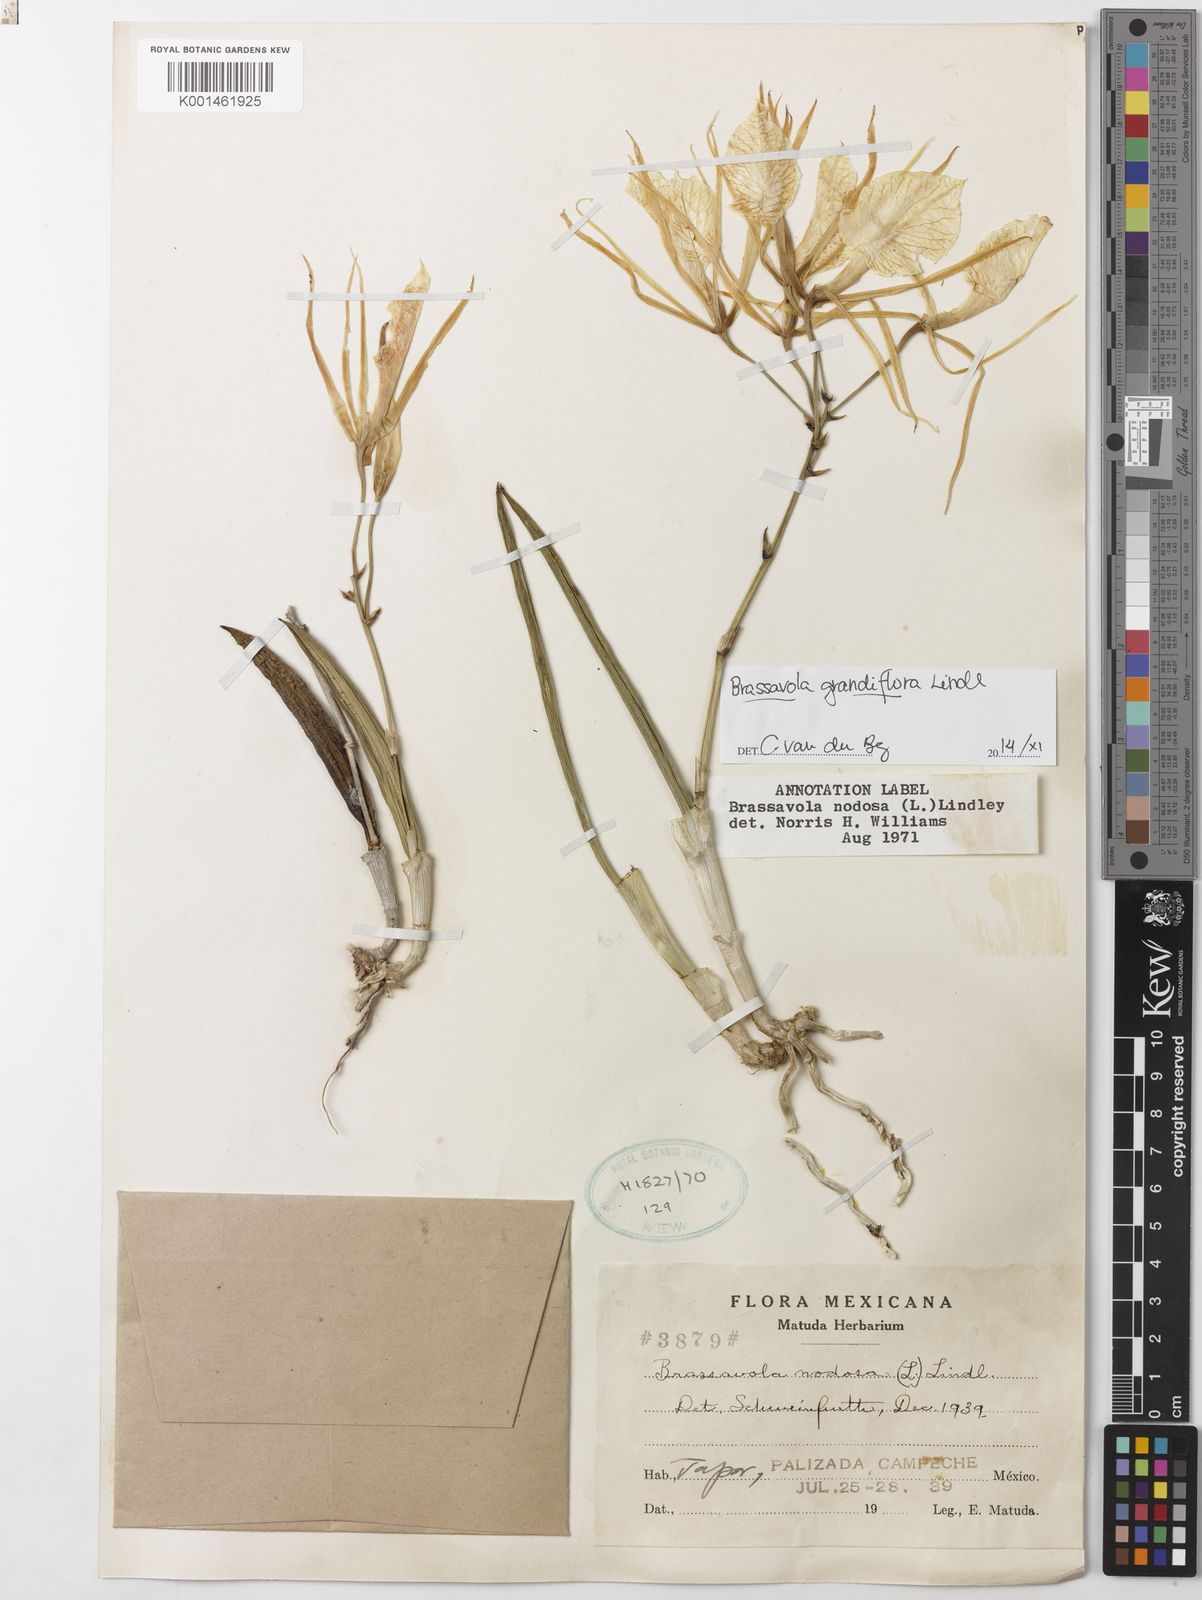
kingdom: Plantae
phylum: Tracheophyta
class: Liliopsida
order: Asparagales
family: Orchidaceae
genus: Brassavola
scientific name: Brassavola nodosa
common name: Lady of the night
